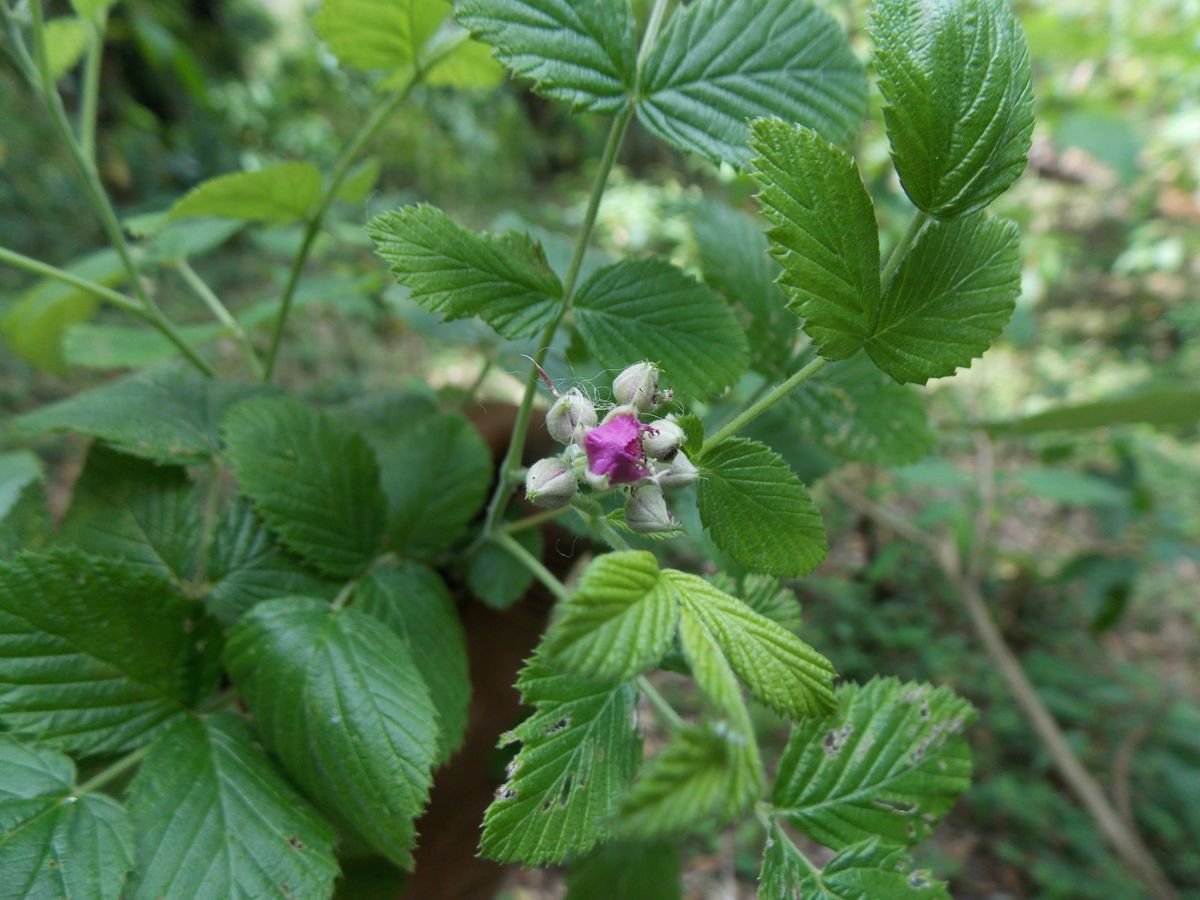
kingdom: Plantae
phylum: Tracheophyta
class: Magnoliopsida
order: Rosales
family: Rosaceae
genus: Rubus
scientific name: Rubus niveus
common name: Snowpeaks raspberry
